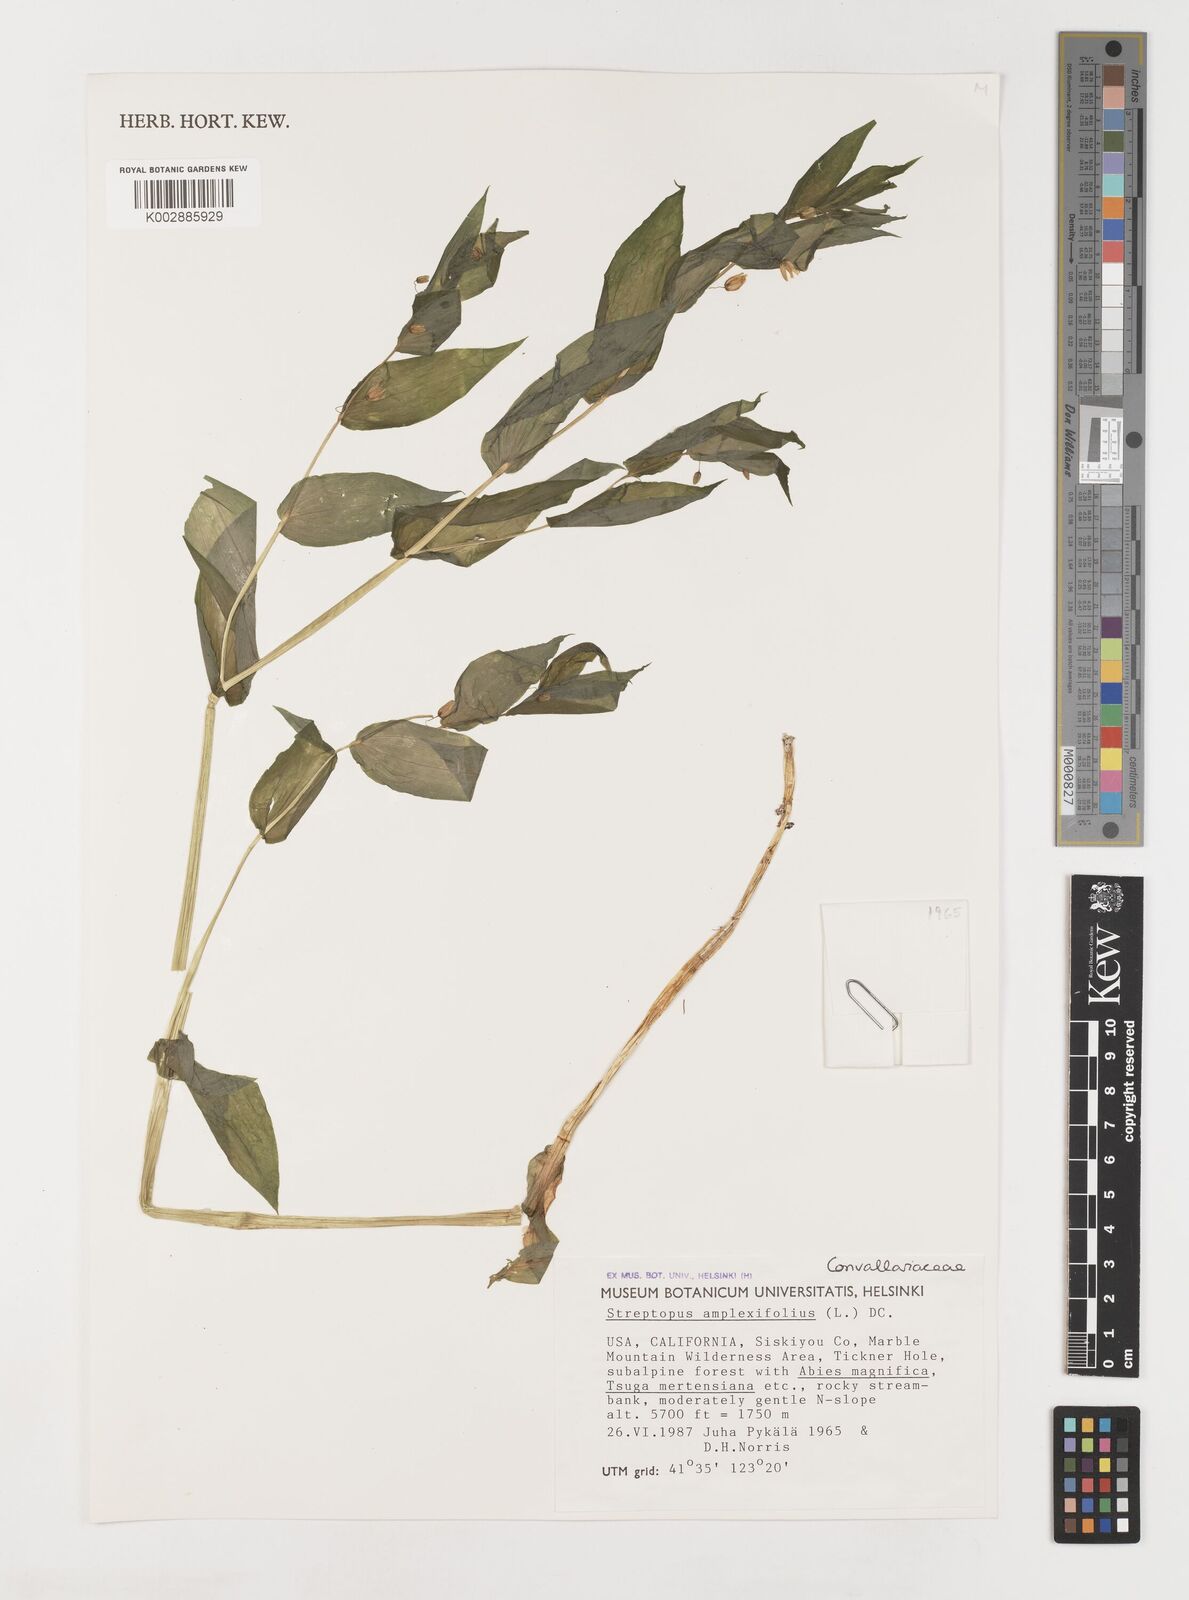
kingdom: Plantae
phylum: Tracheophyta
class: Liliopsida
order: Liliales
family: Liliaceae
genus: Streptopus
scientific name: Streptopus
